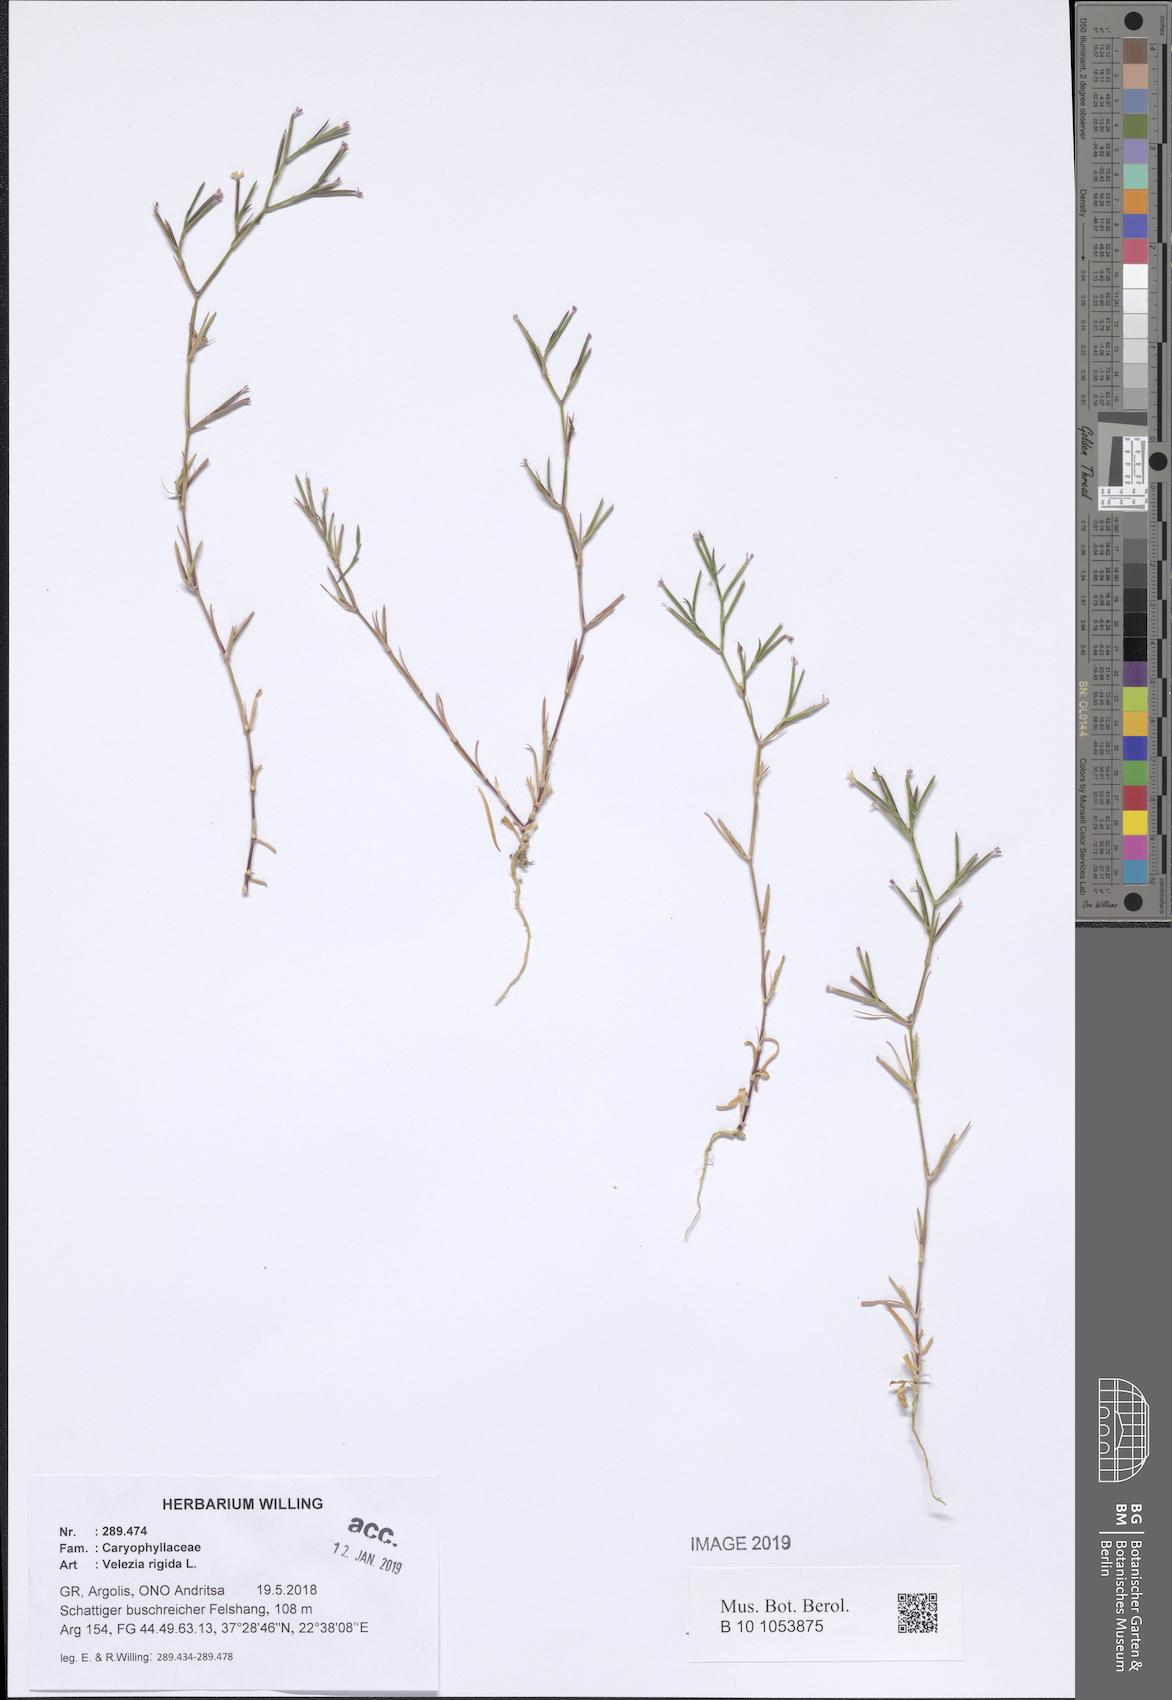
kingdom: Plantae
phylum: Tracheophyta
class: Magnoliopsida
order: Caryophyllales
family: Caryophyllaceae
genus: Dianthus
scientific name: Dianthus nudiflorus
